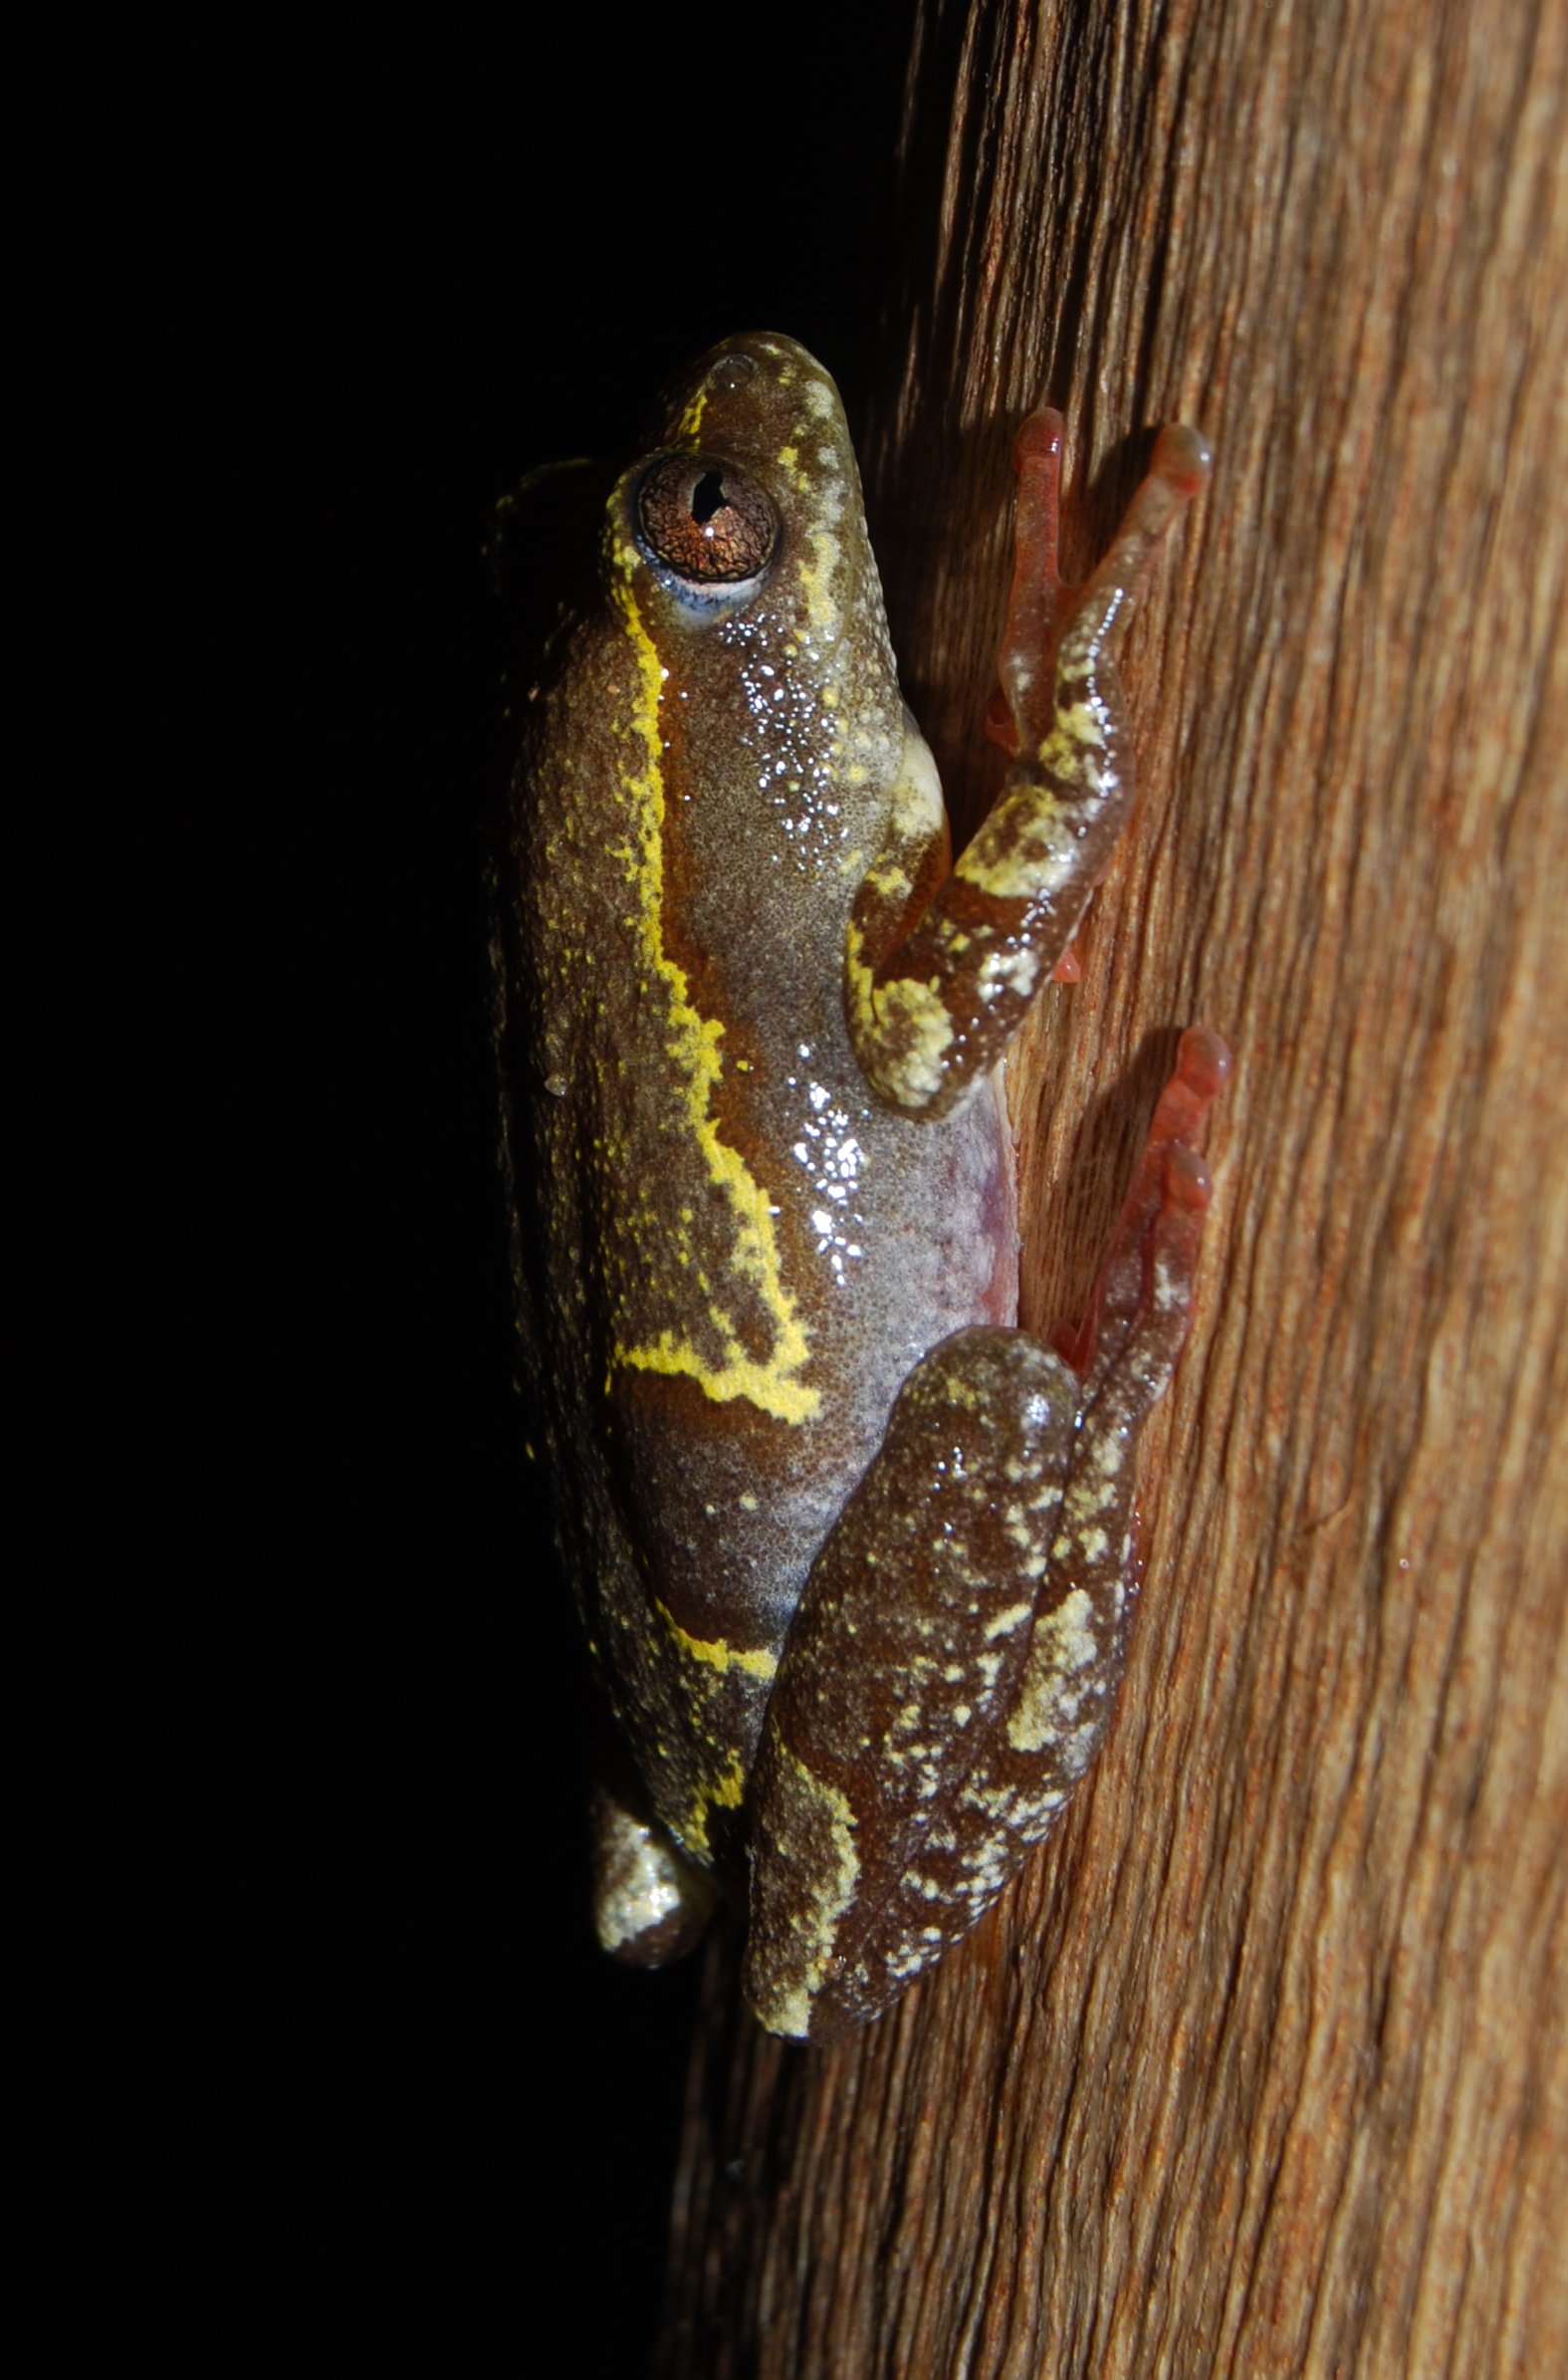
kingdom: Animalia
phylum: Chordata
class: Amphibia
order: Anura
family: Hyperoliidae
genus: Hyperolius
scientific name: Hyperolius marmoratus
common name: Painted reed frog
